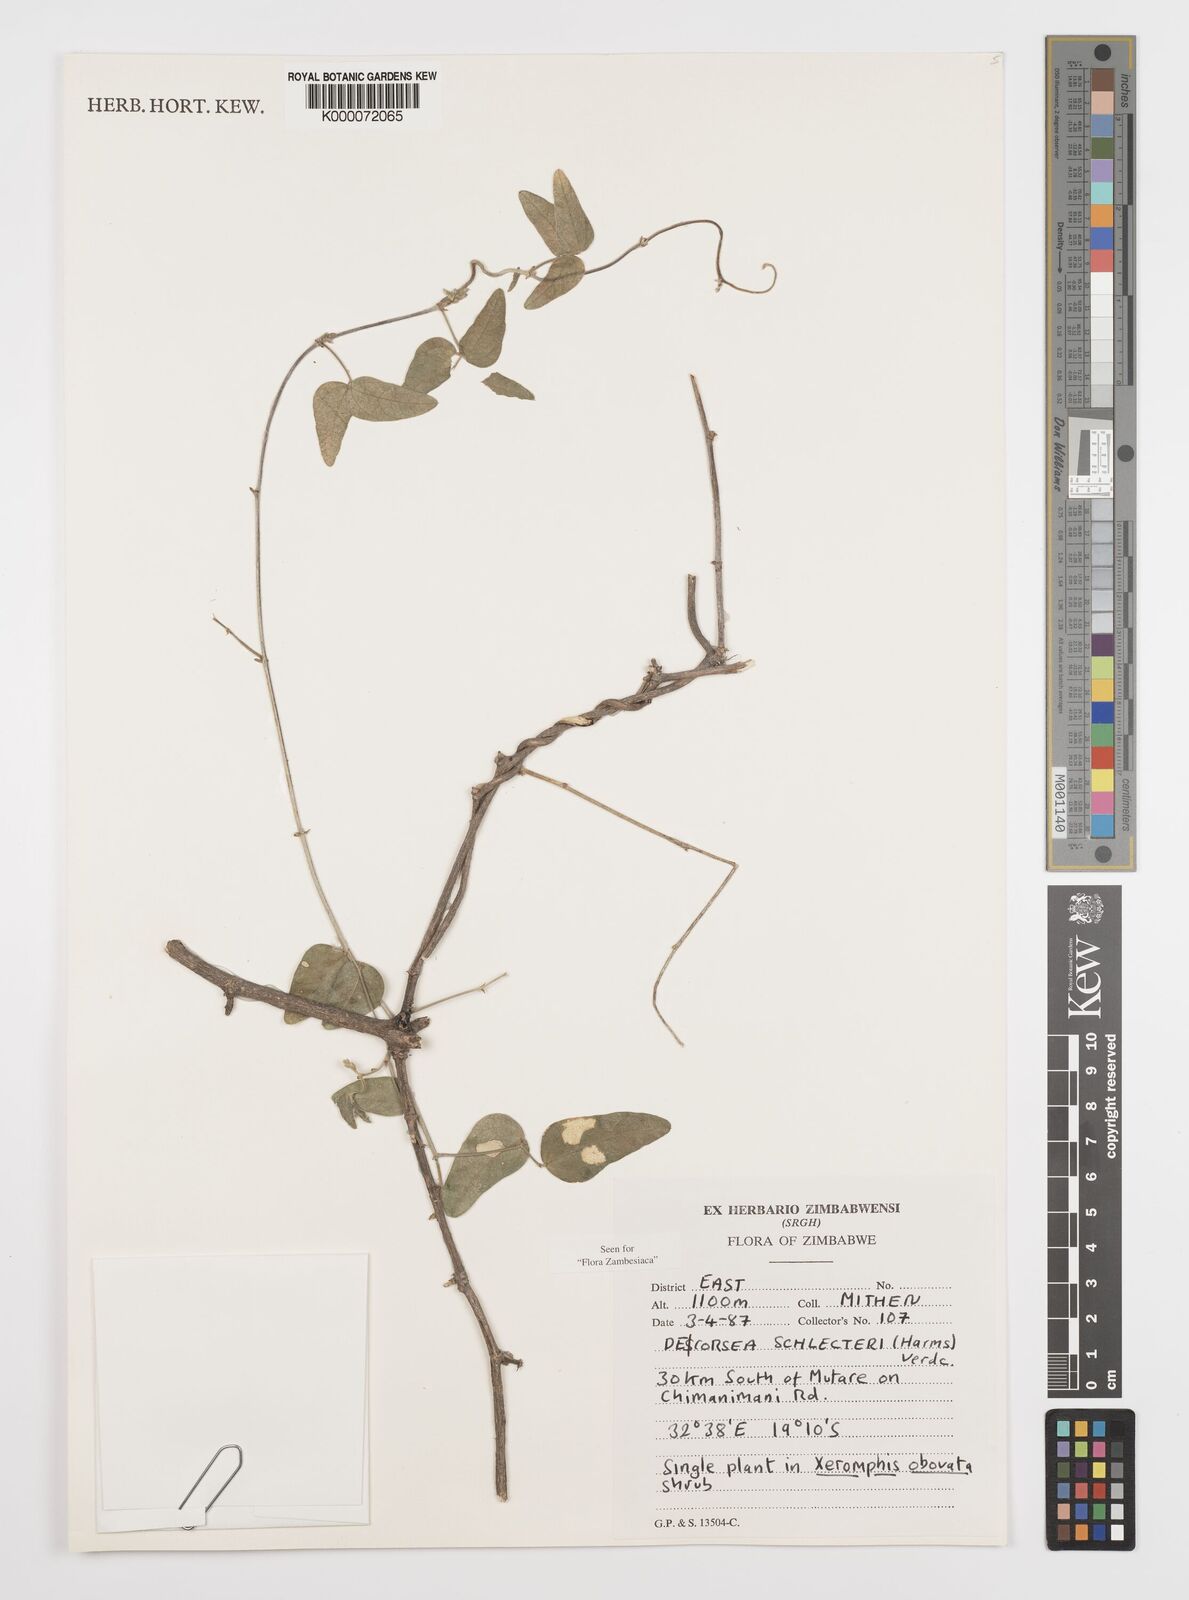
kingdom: Plantae
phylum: Tracheophyta
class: Magnoliopsida
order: Fabales
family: Fabaceae
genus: Decorsea
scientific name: Decorsea schlechteri
